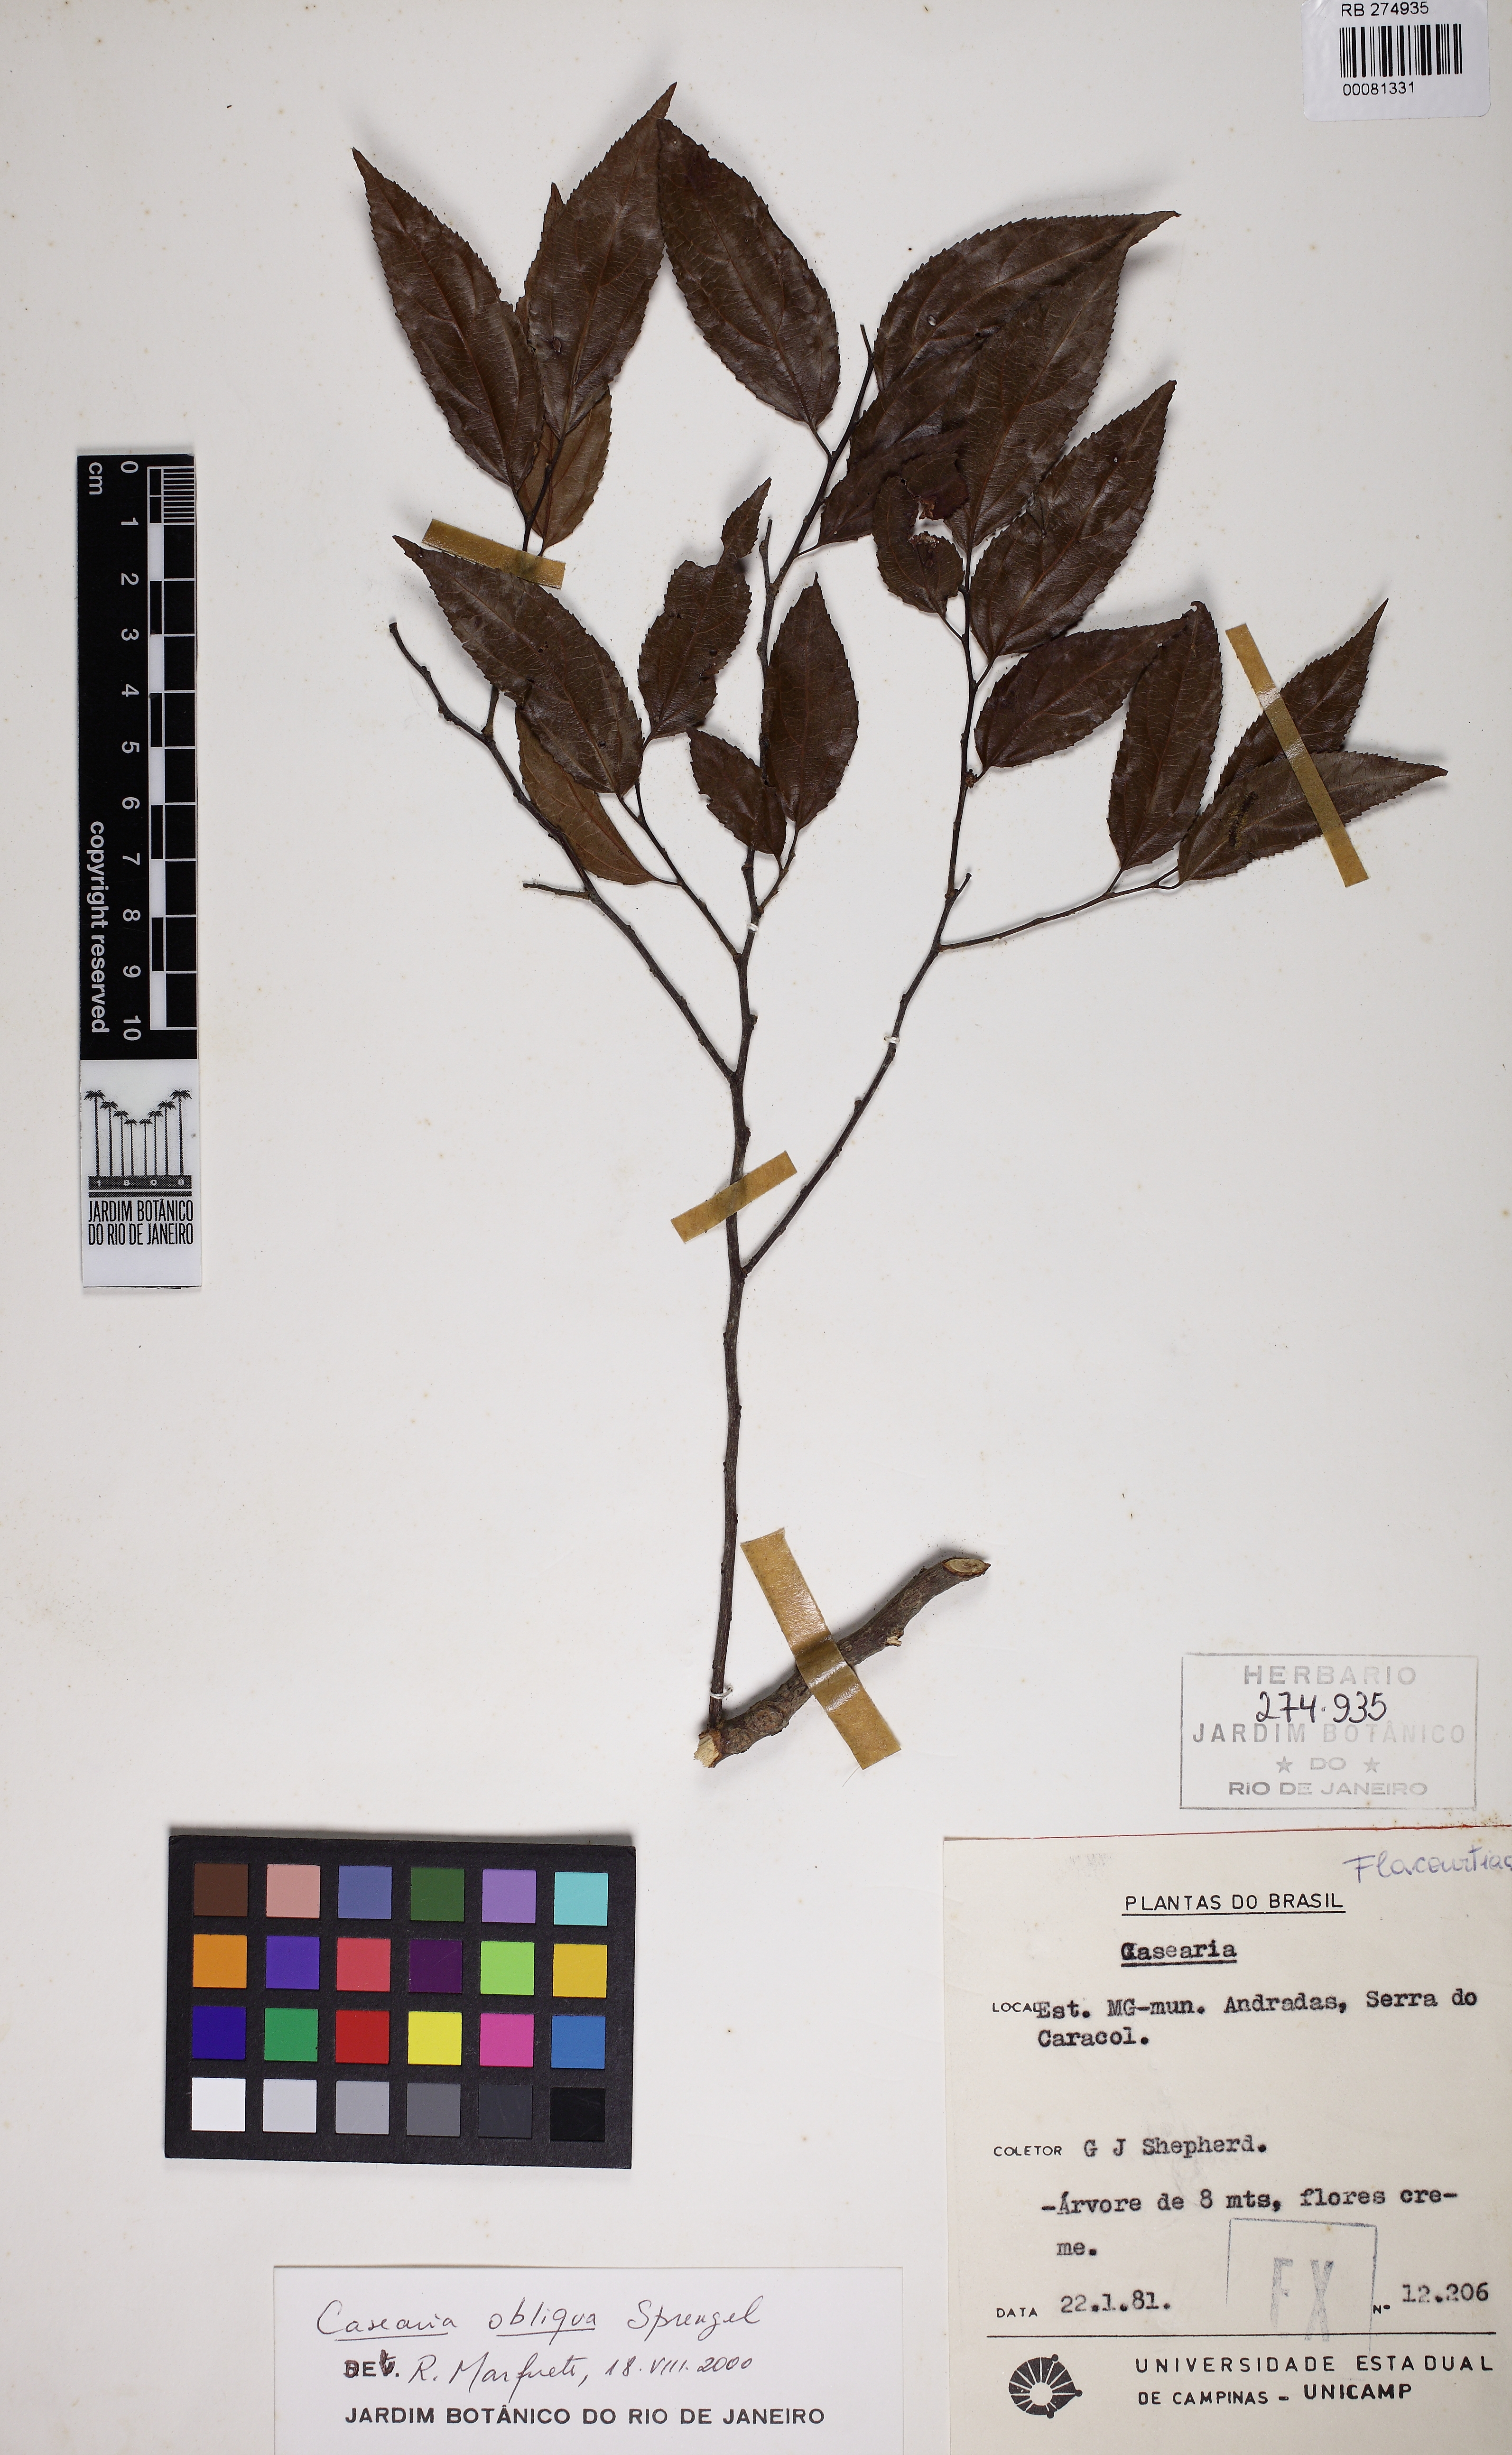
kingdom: Plantae
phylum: Tracheophyta
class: Magnoliopsida
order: Malpighiales
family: Salicaceae
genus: Casearia
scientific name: Casearia obliqua
